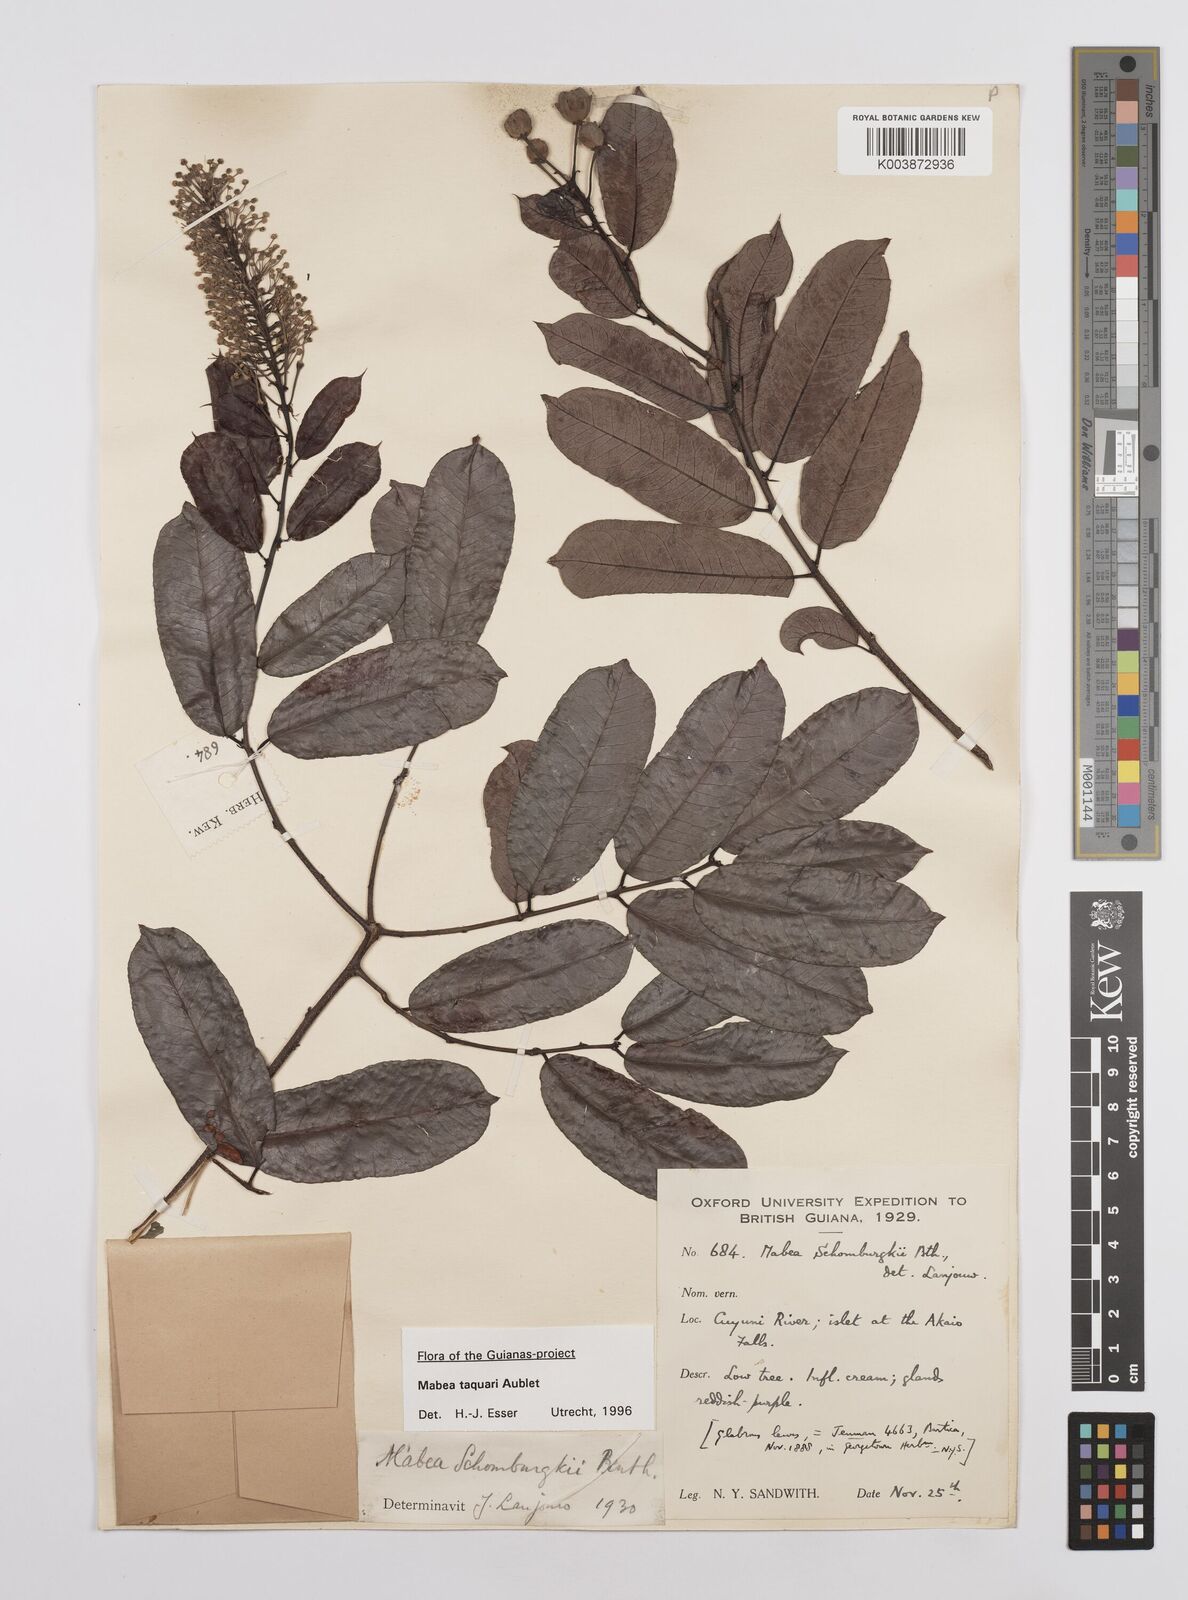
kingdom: Plantae
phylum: Tracheophyta
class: Magnoliopsida
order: Malpighiales
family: Euphorbiaceae
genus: Mabea
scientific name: Mabea taquari
